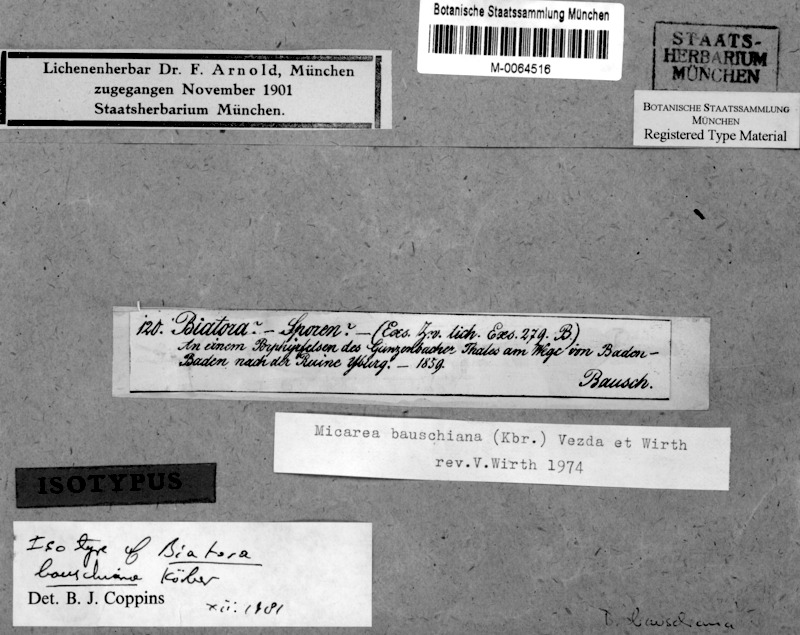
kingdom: Fungi
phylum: Ascomycota
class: Lecanoromycetes
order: Lecanorales
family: Psoraceae
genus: Brianaria
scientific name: Brianaria bauschiana
